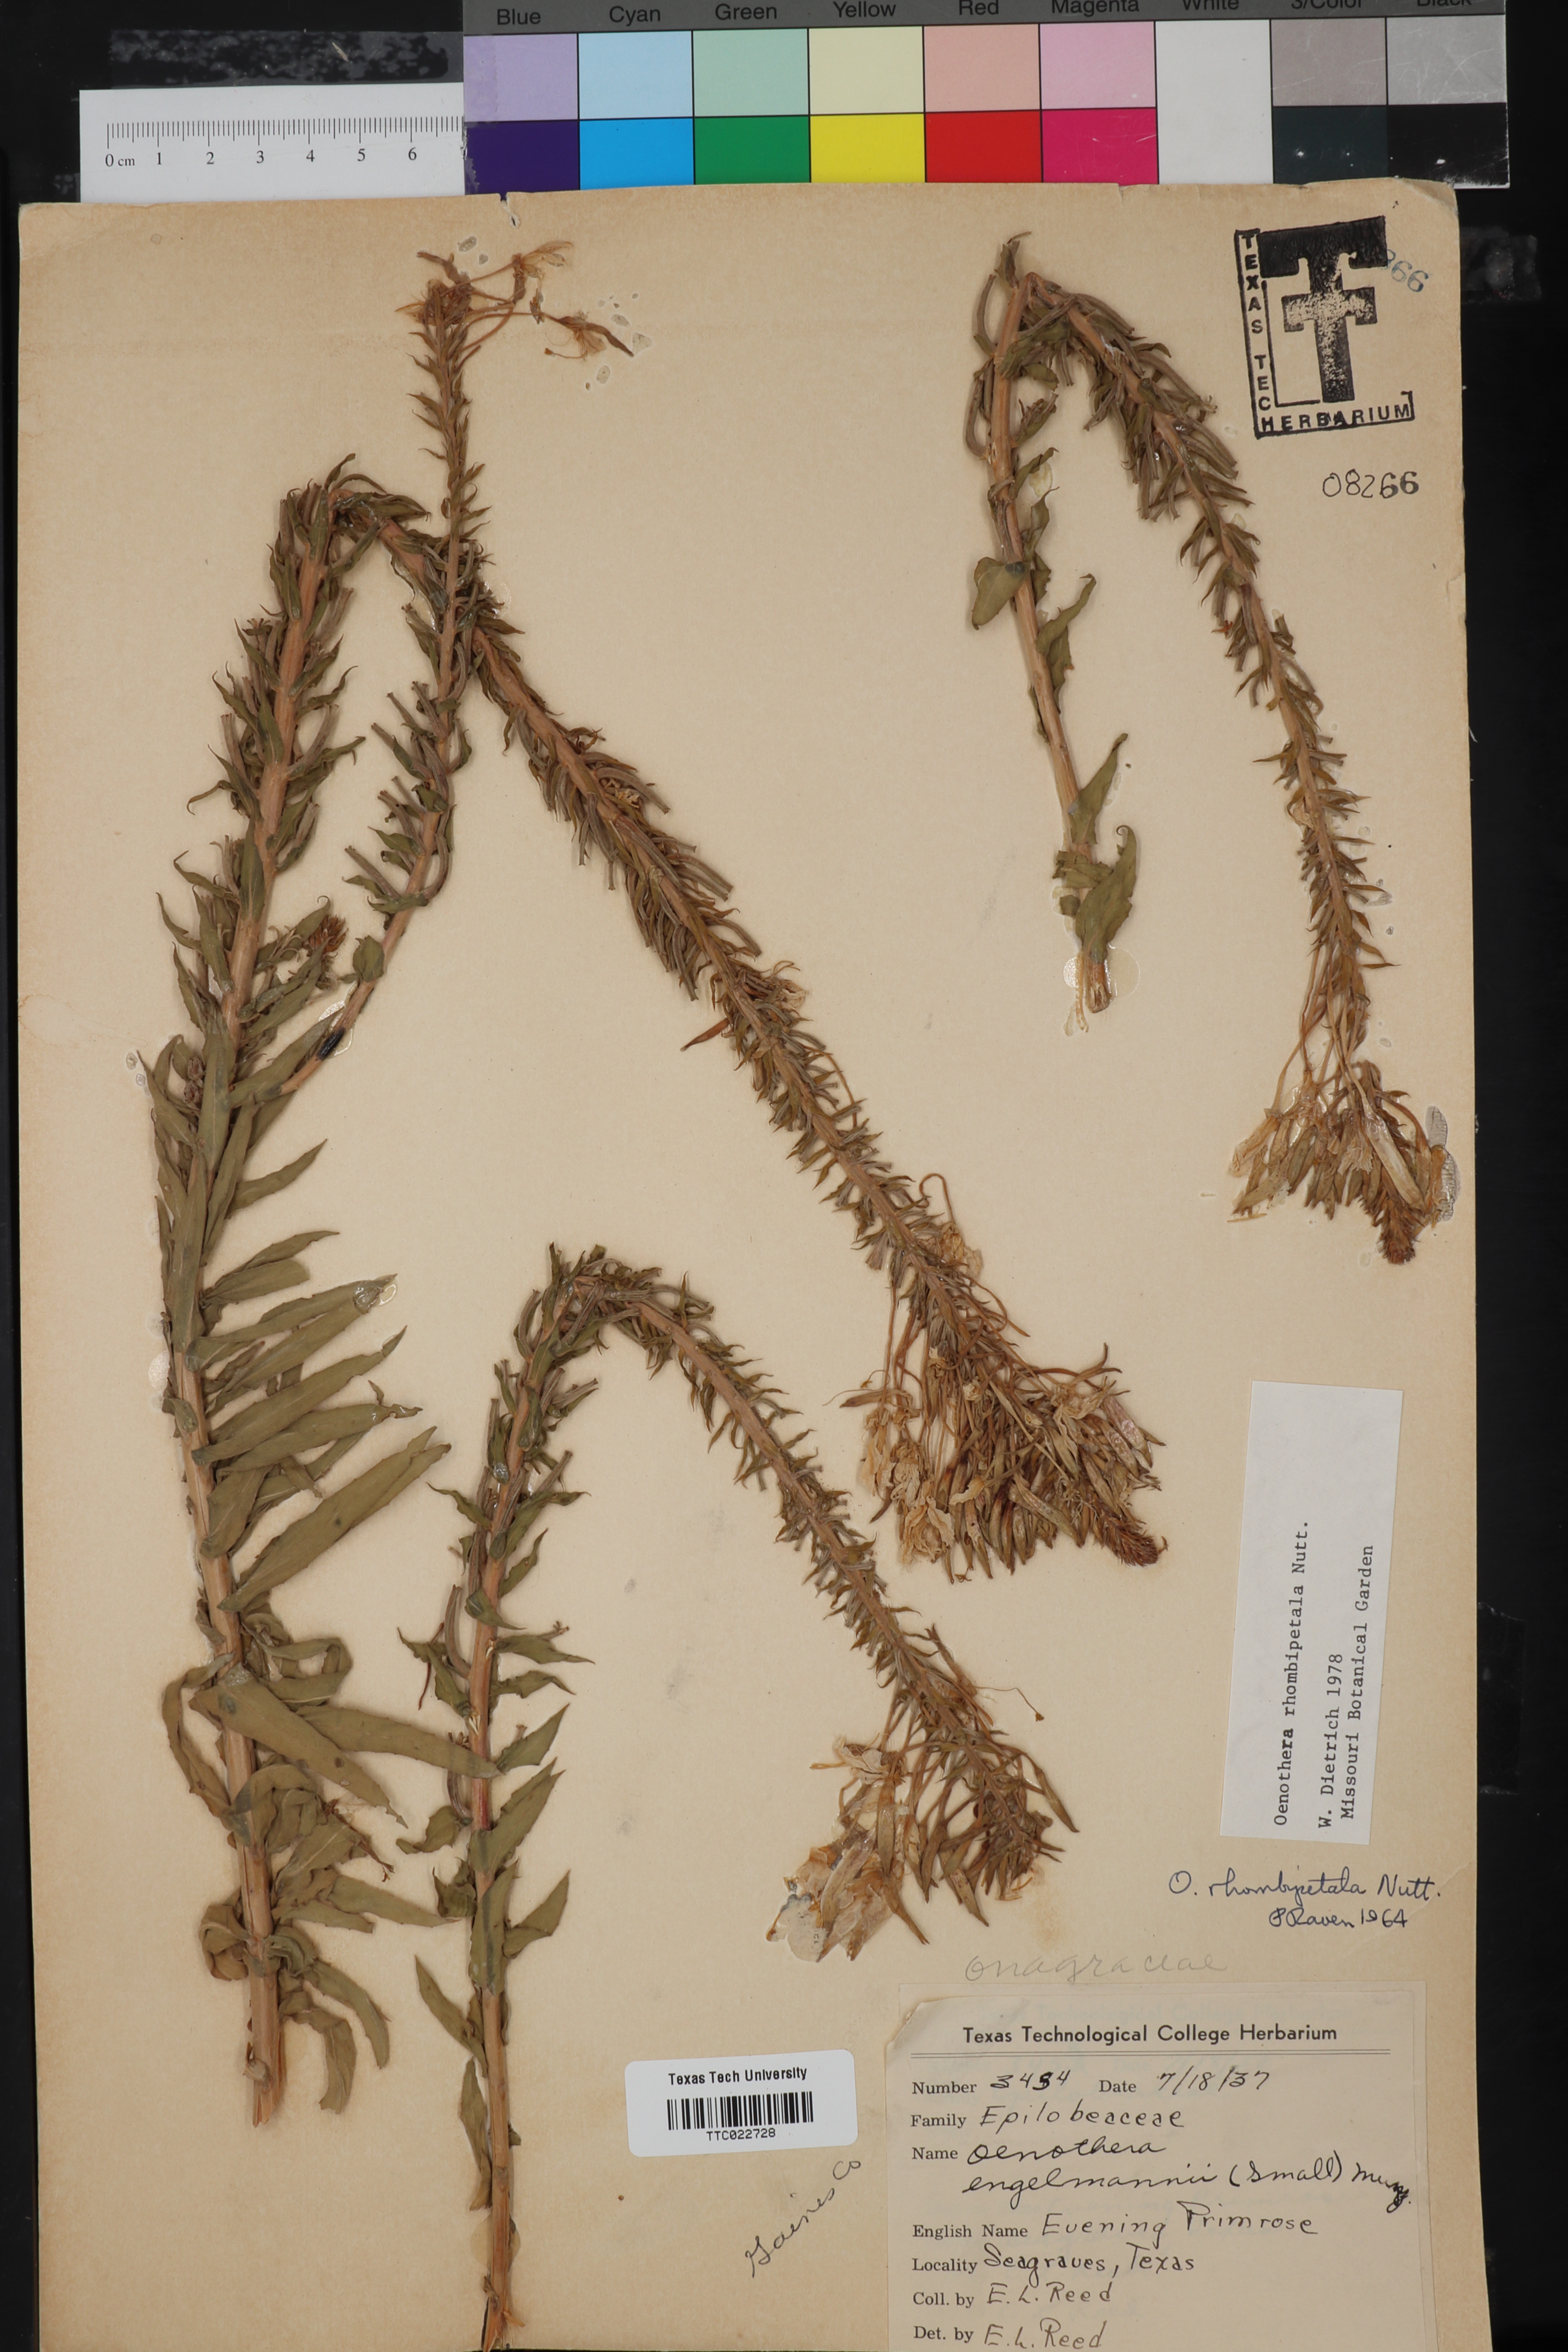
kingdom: Plantae
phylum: Tracheophyta
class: Magnoliopsida
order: Myrtales
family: Onagraceae
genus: Oenothera
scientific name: Oenothera rhombipetala
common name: Four-points evening-primrose
